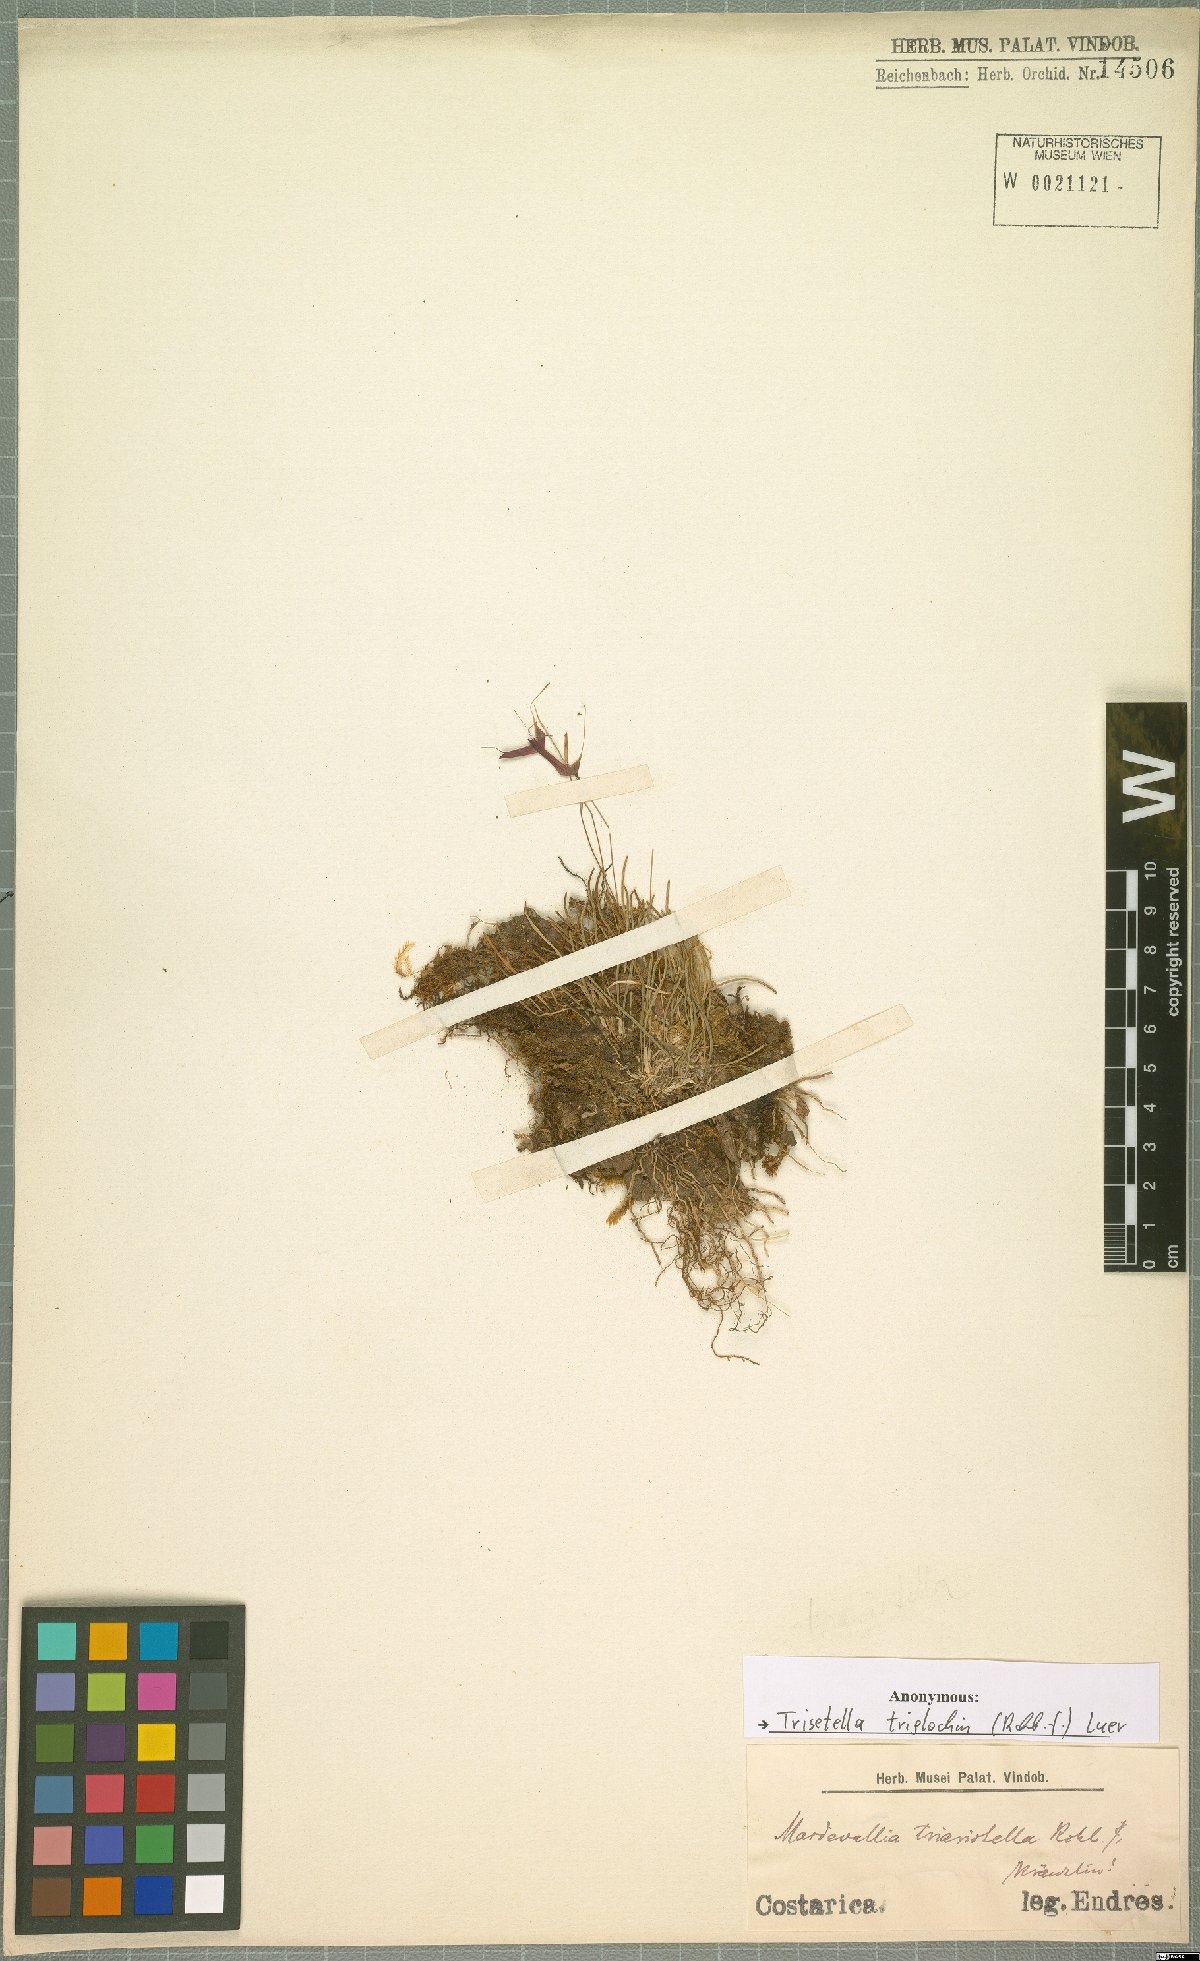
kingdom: Plantae
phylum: Tracheophyta
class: Liliopsida
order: Asparagales
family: Orchidaceae
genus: Trisetella
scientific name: Trisetella triglochin
